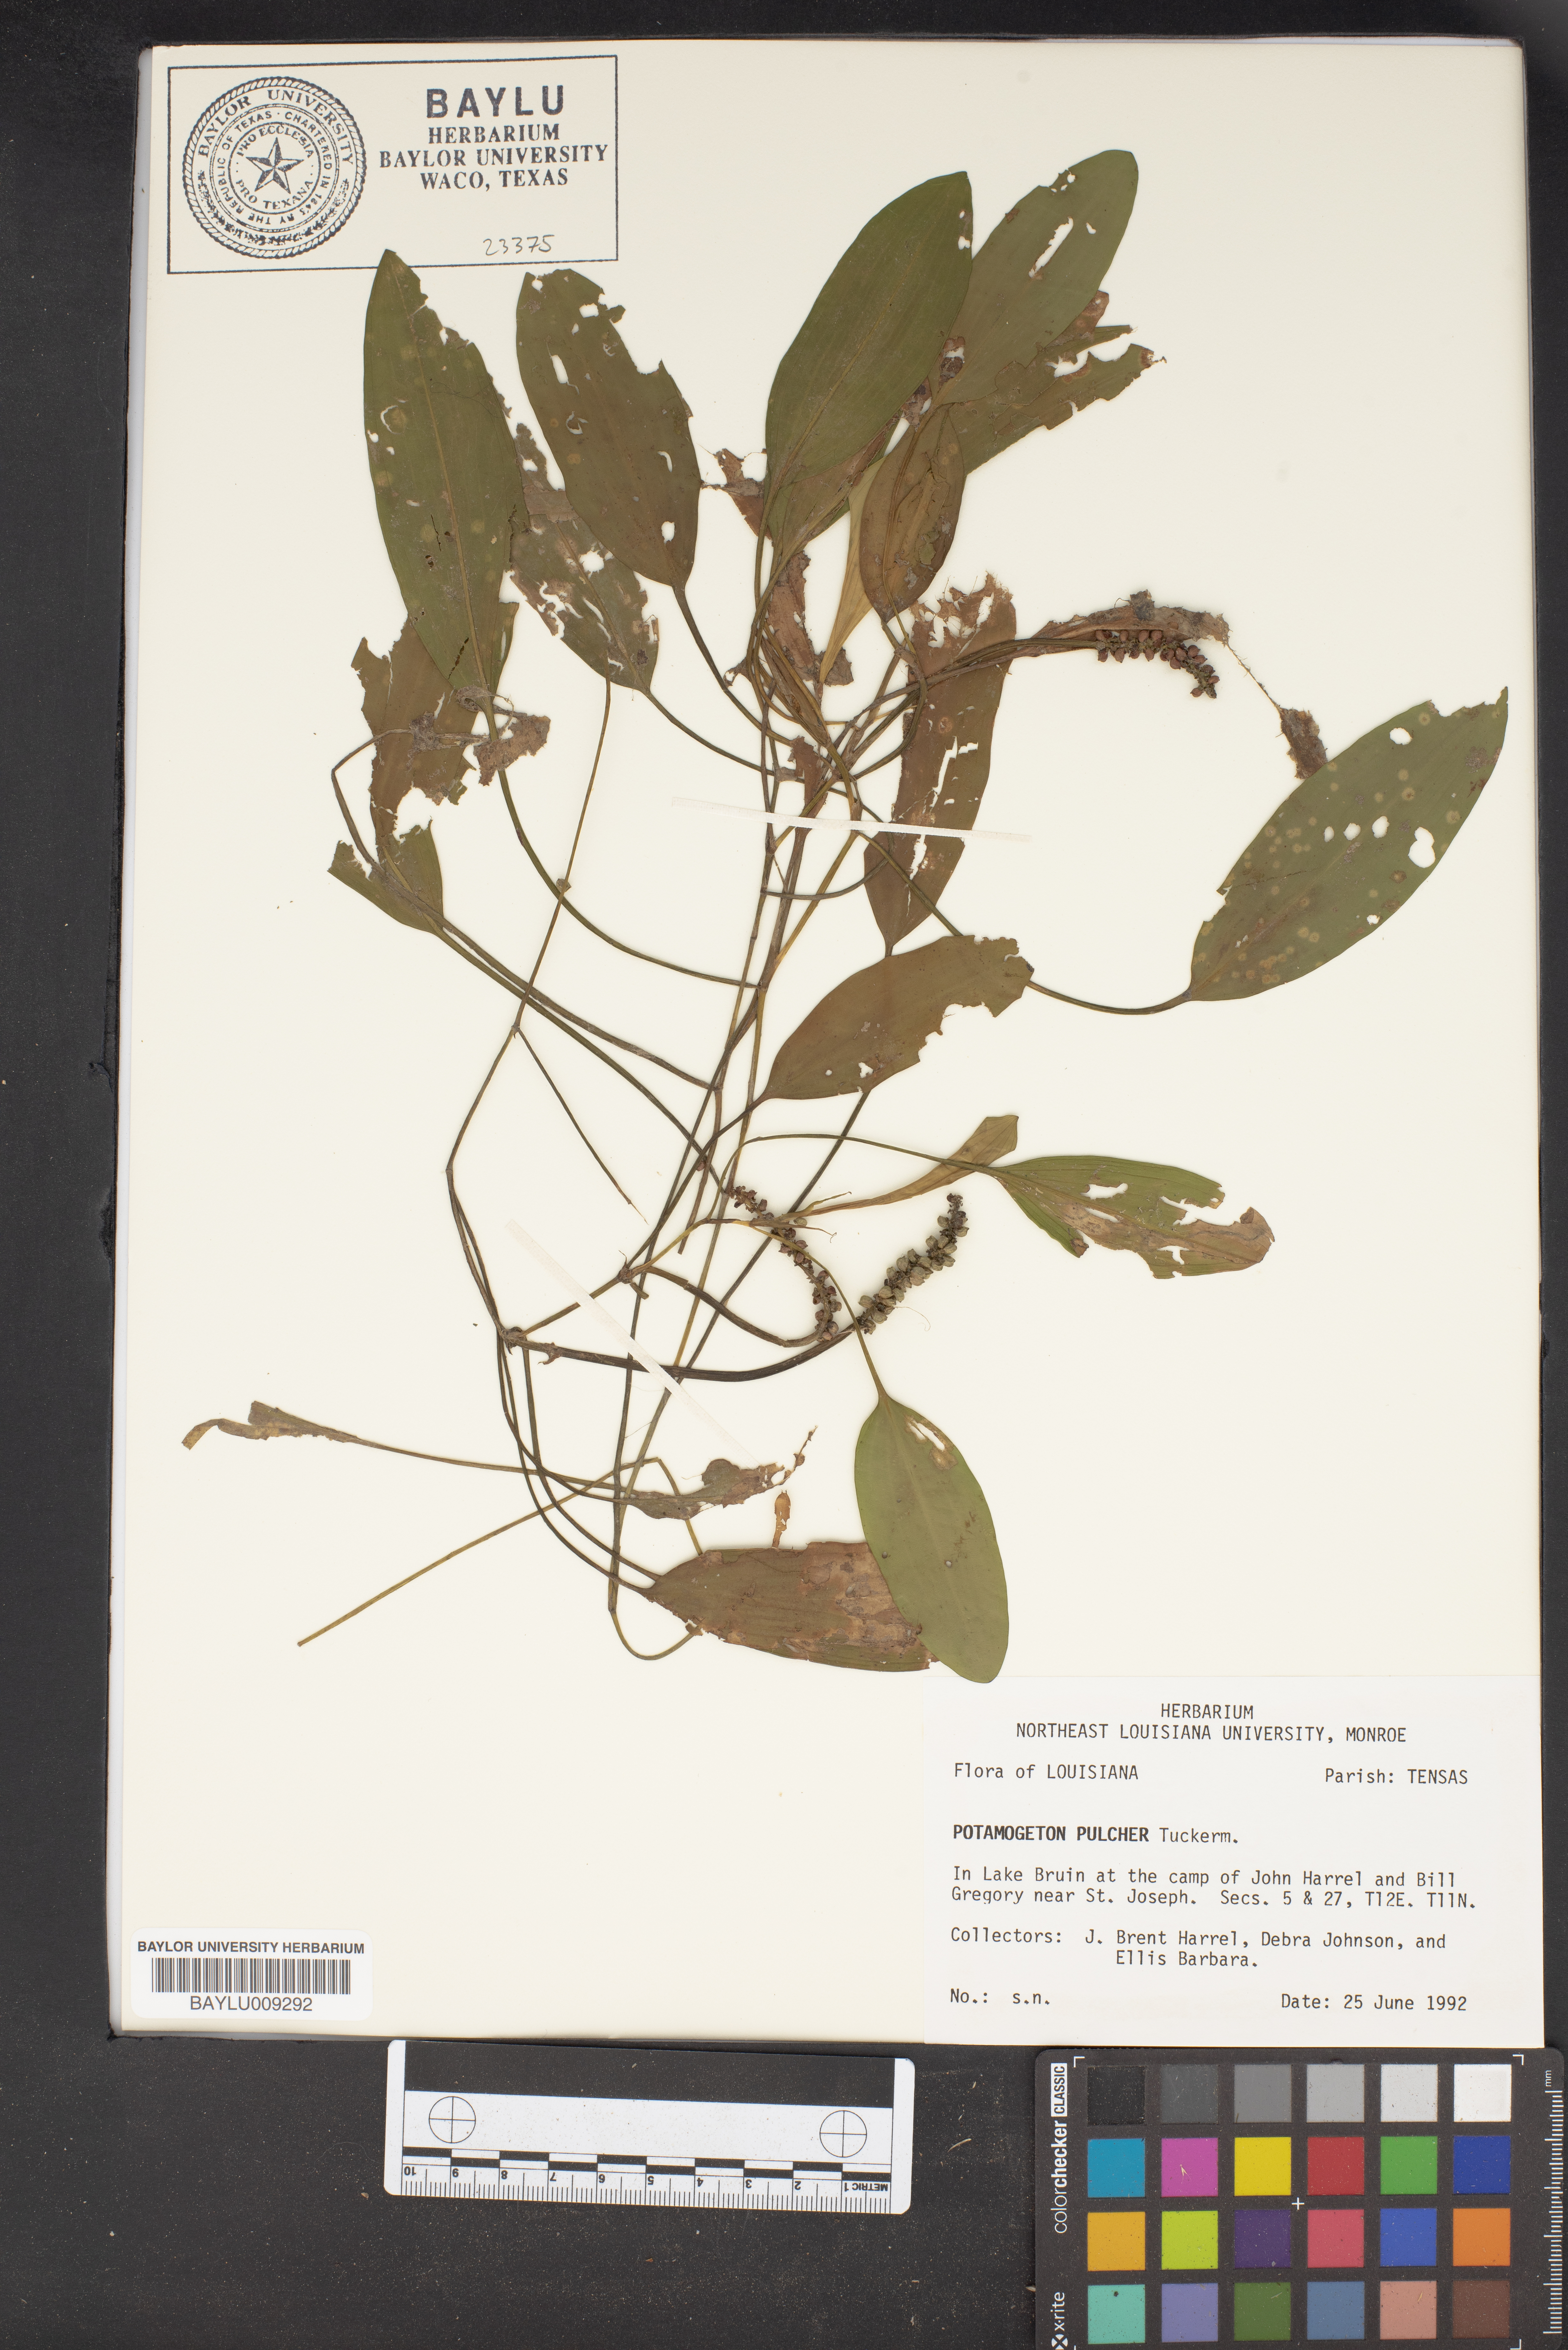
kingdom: Plantae
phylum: Tracheophyta
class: Liliopsida
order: Alismatales
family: Potamogetonaceae
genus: Potamogeton
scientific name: Potamogeton pulcher
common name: Heart-leaved pondweed
